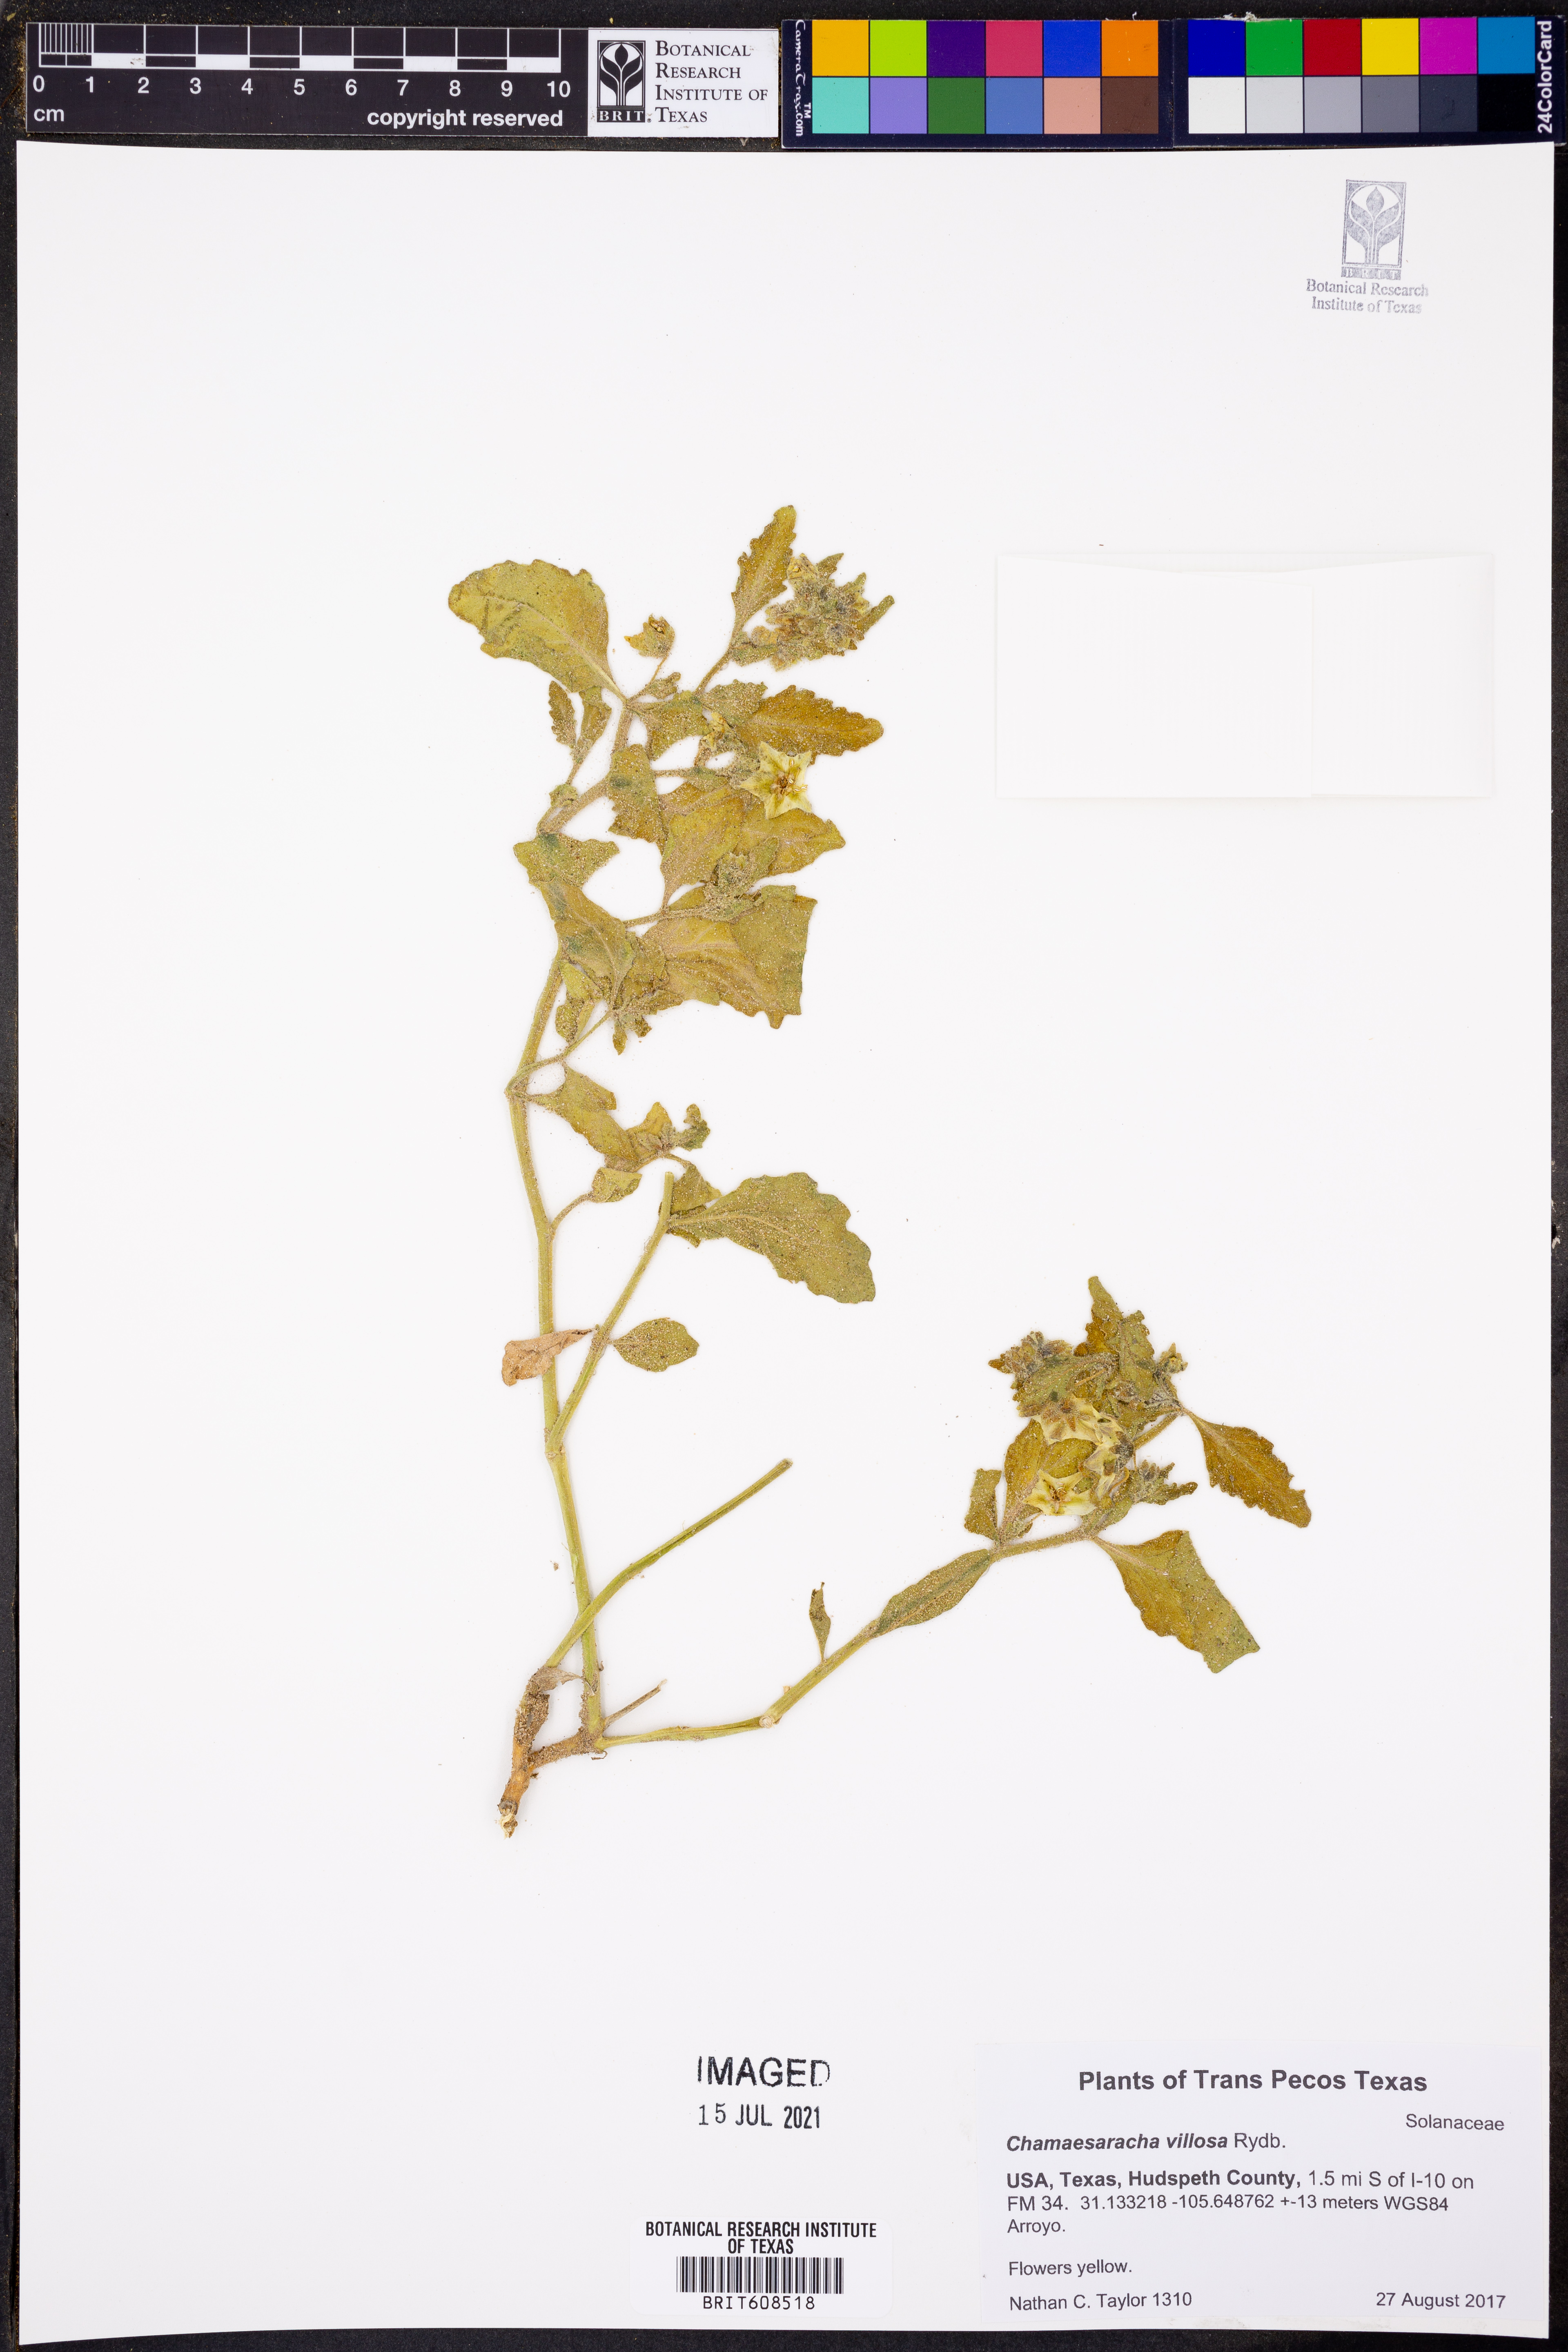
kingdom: Plantae
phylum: Tracheophyta
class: Magnoliopsida
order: Solanales
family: Solanaceae
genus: Chamaesaracha
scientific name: Chamaesaracha villosa
